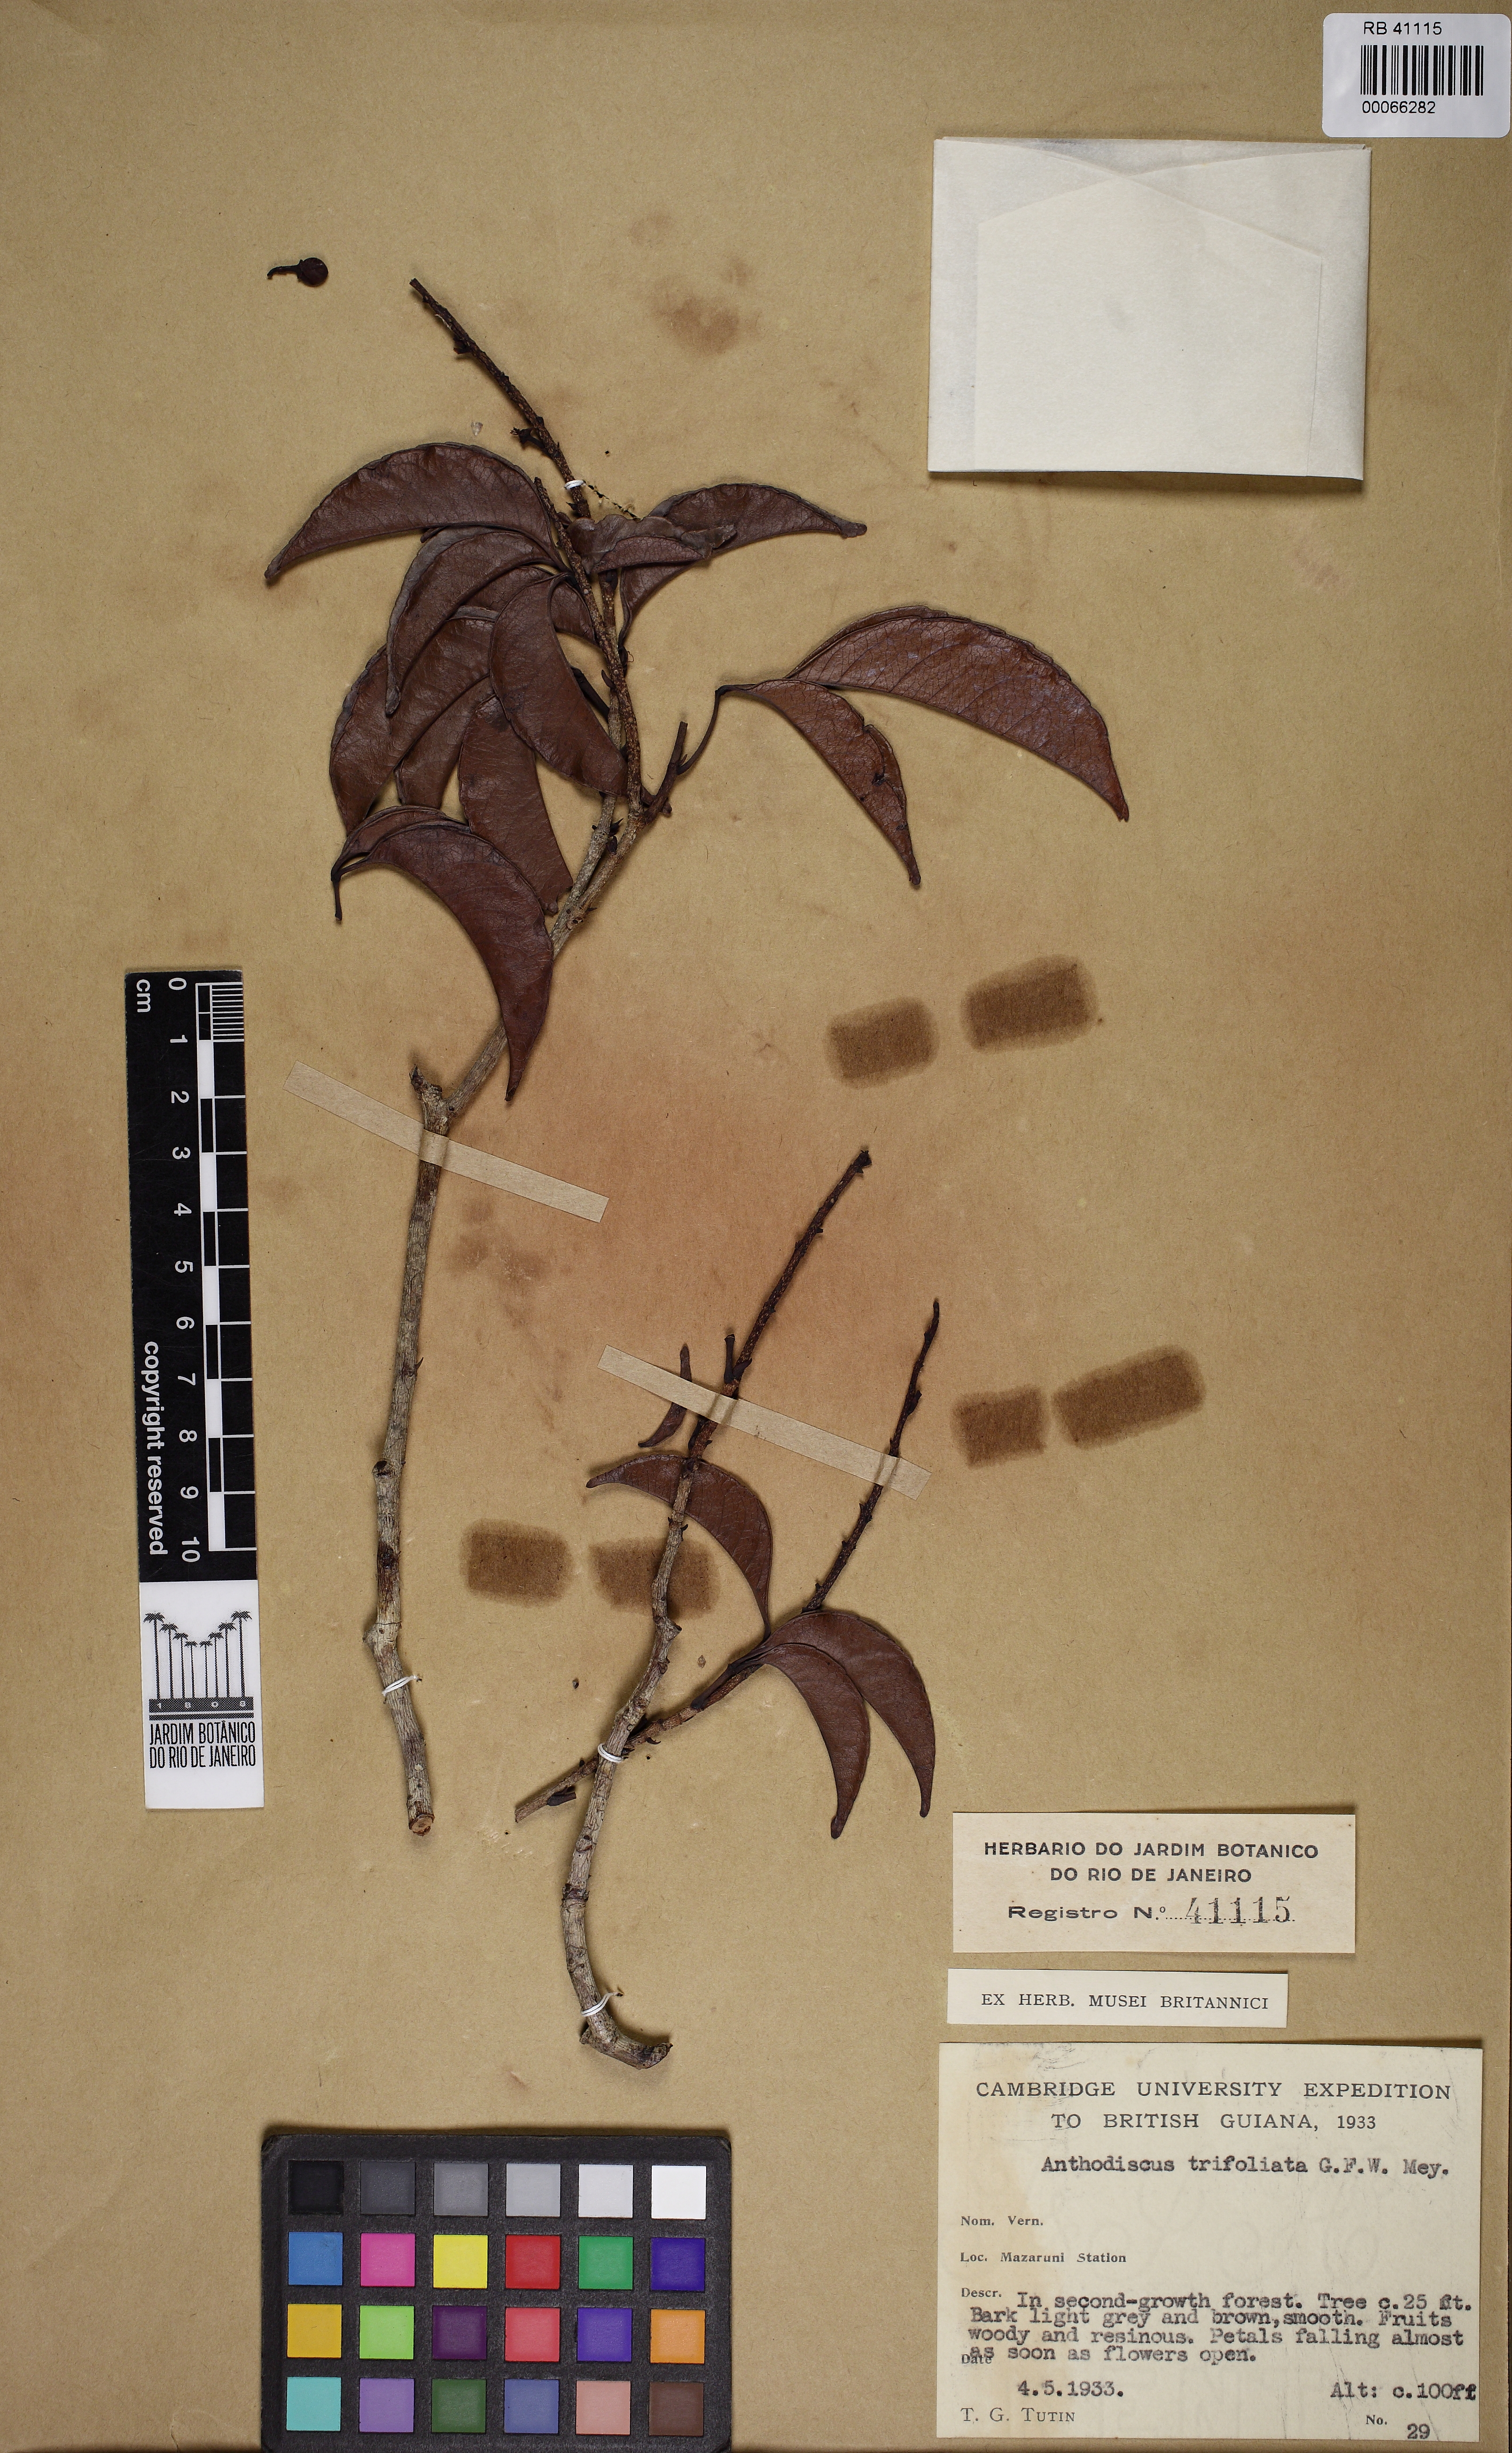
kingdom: Plantae
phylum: Tracheophyta
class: Magnoliopsida
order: Malpighiales
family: Caryocaraceae
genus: Anthodiscus
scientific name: Anthodiscus trifoliatus
